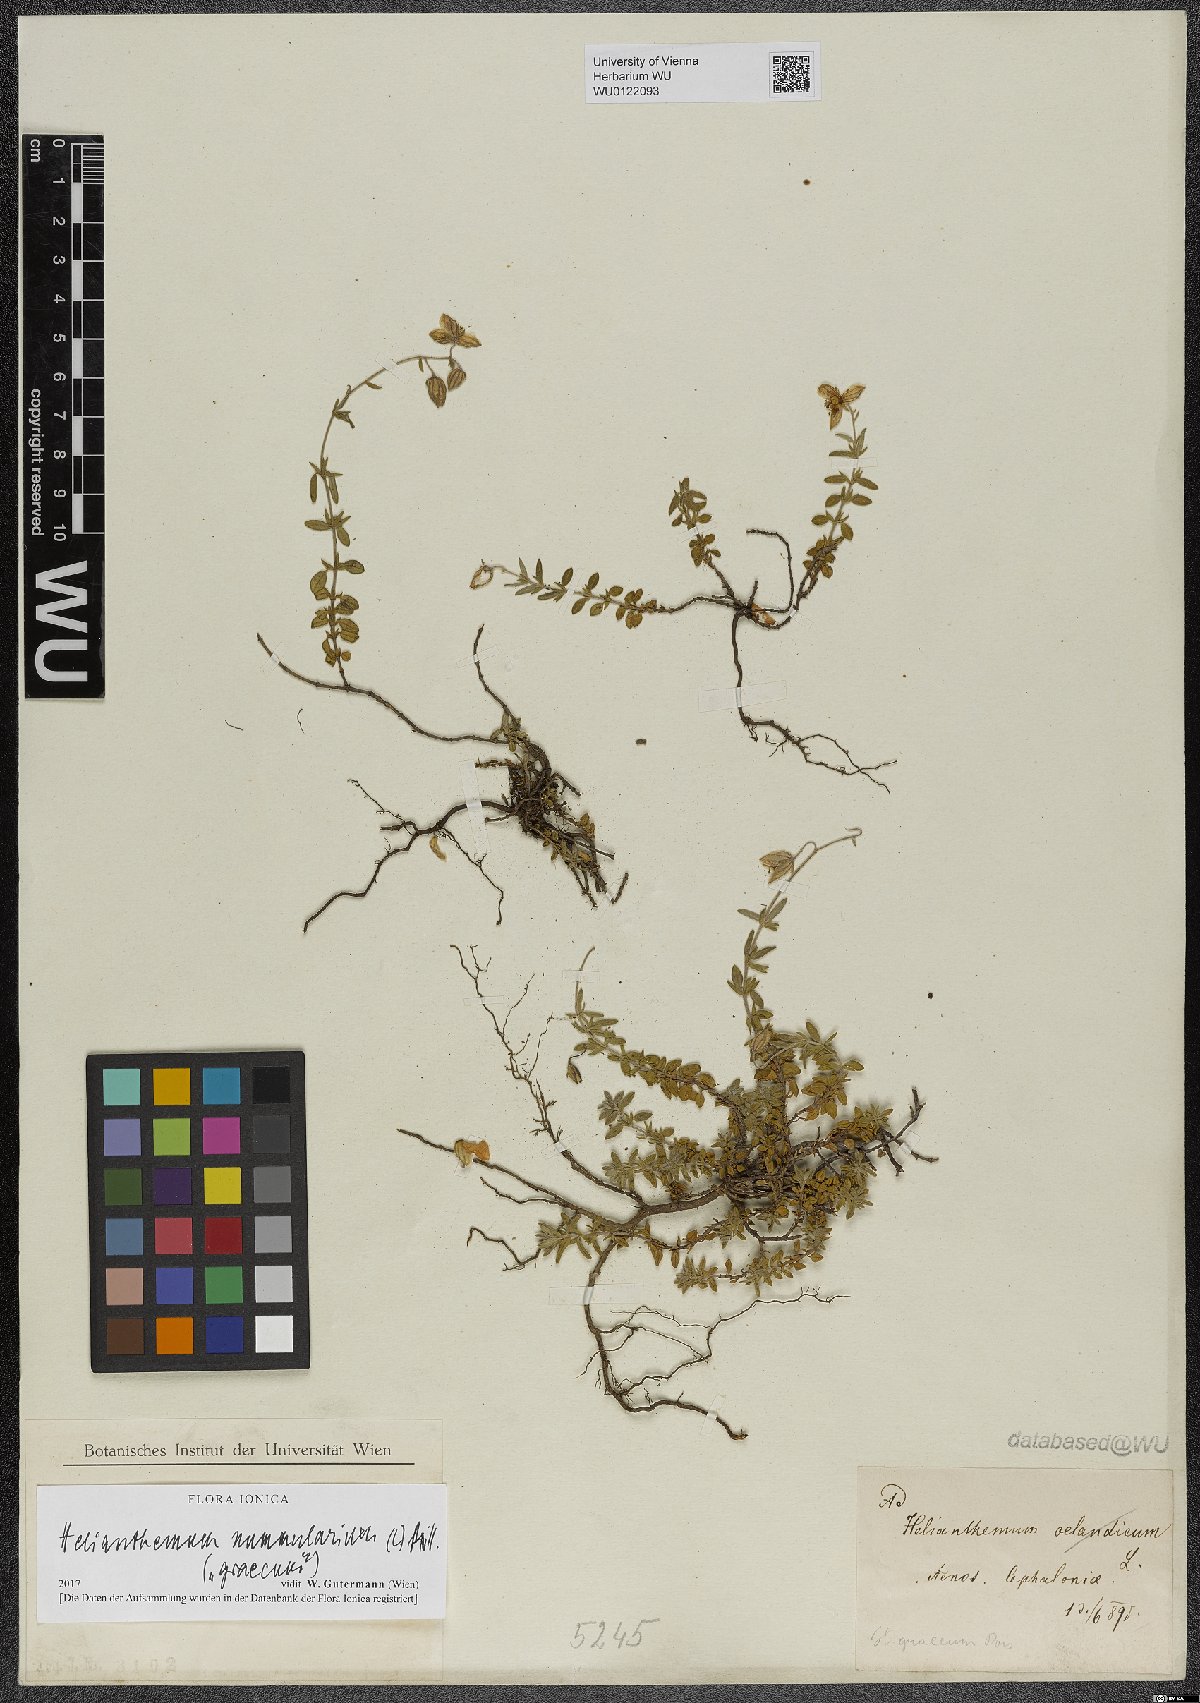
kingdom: Plantae
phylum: Tracheophyta
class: Magnoliopsida
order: Malvales
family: Cistaceae
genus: Helianthemum
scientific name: Helianthemum nummularium
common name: Common rock-rose
